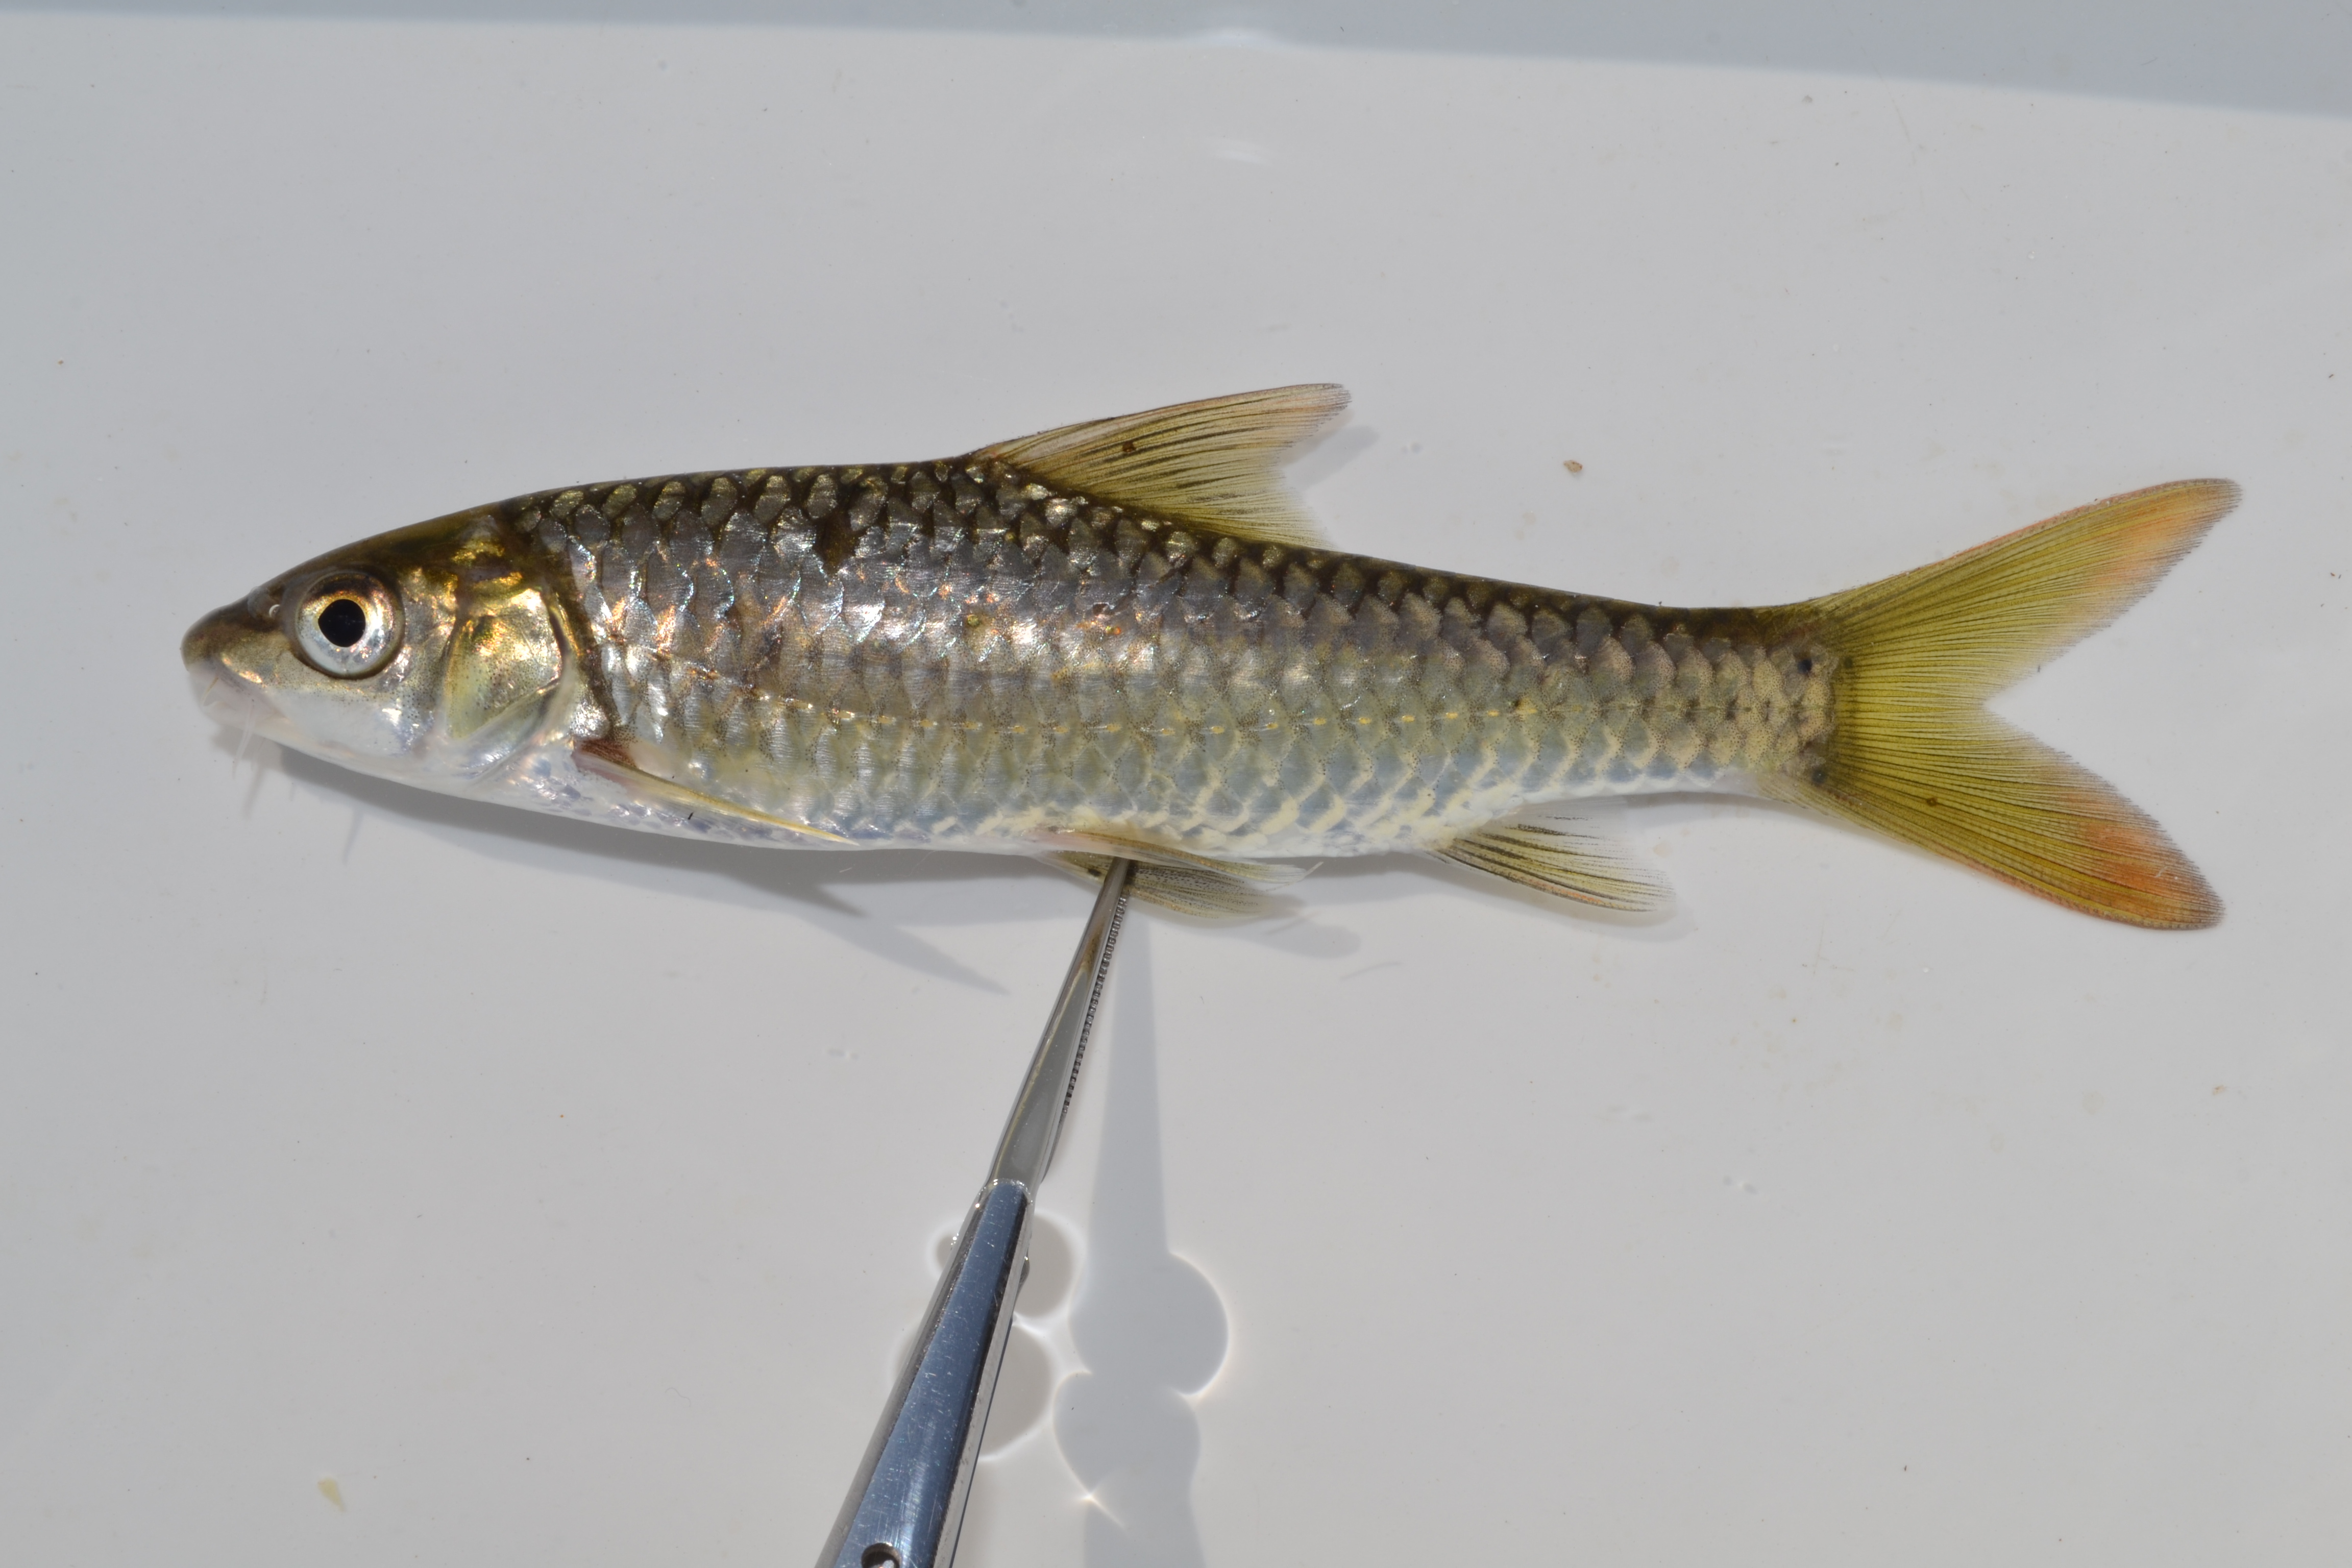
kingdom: Animalia
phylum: Chordata
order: Cypriniformes
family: Cyprinidae
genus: Labeobarbus
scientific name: Labeobarbus marequensis
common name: Largescale yellowfish
